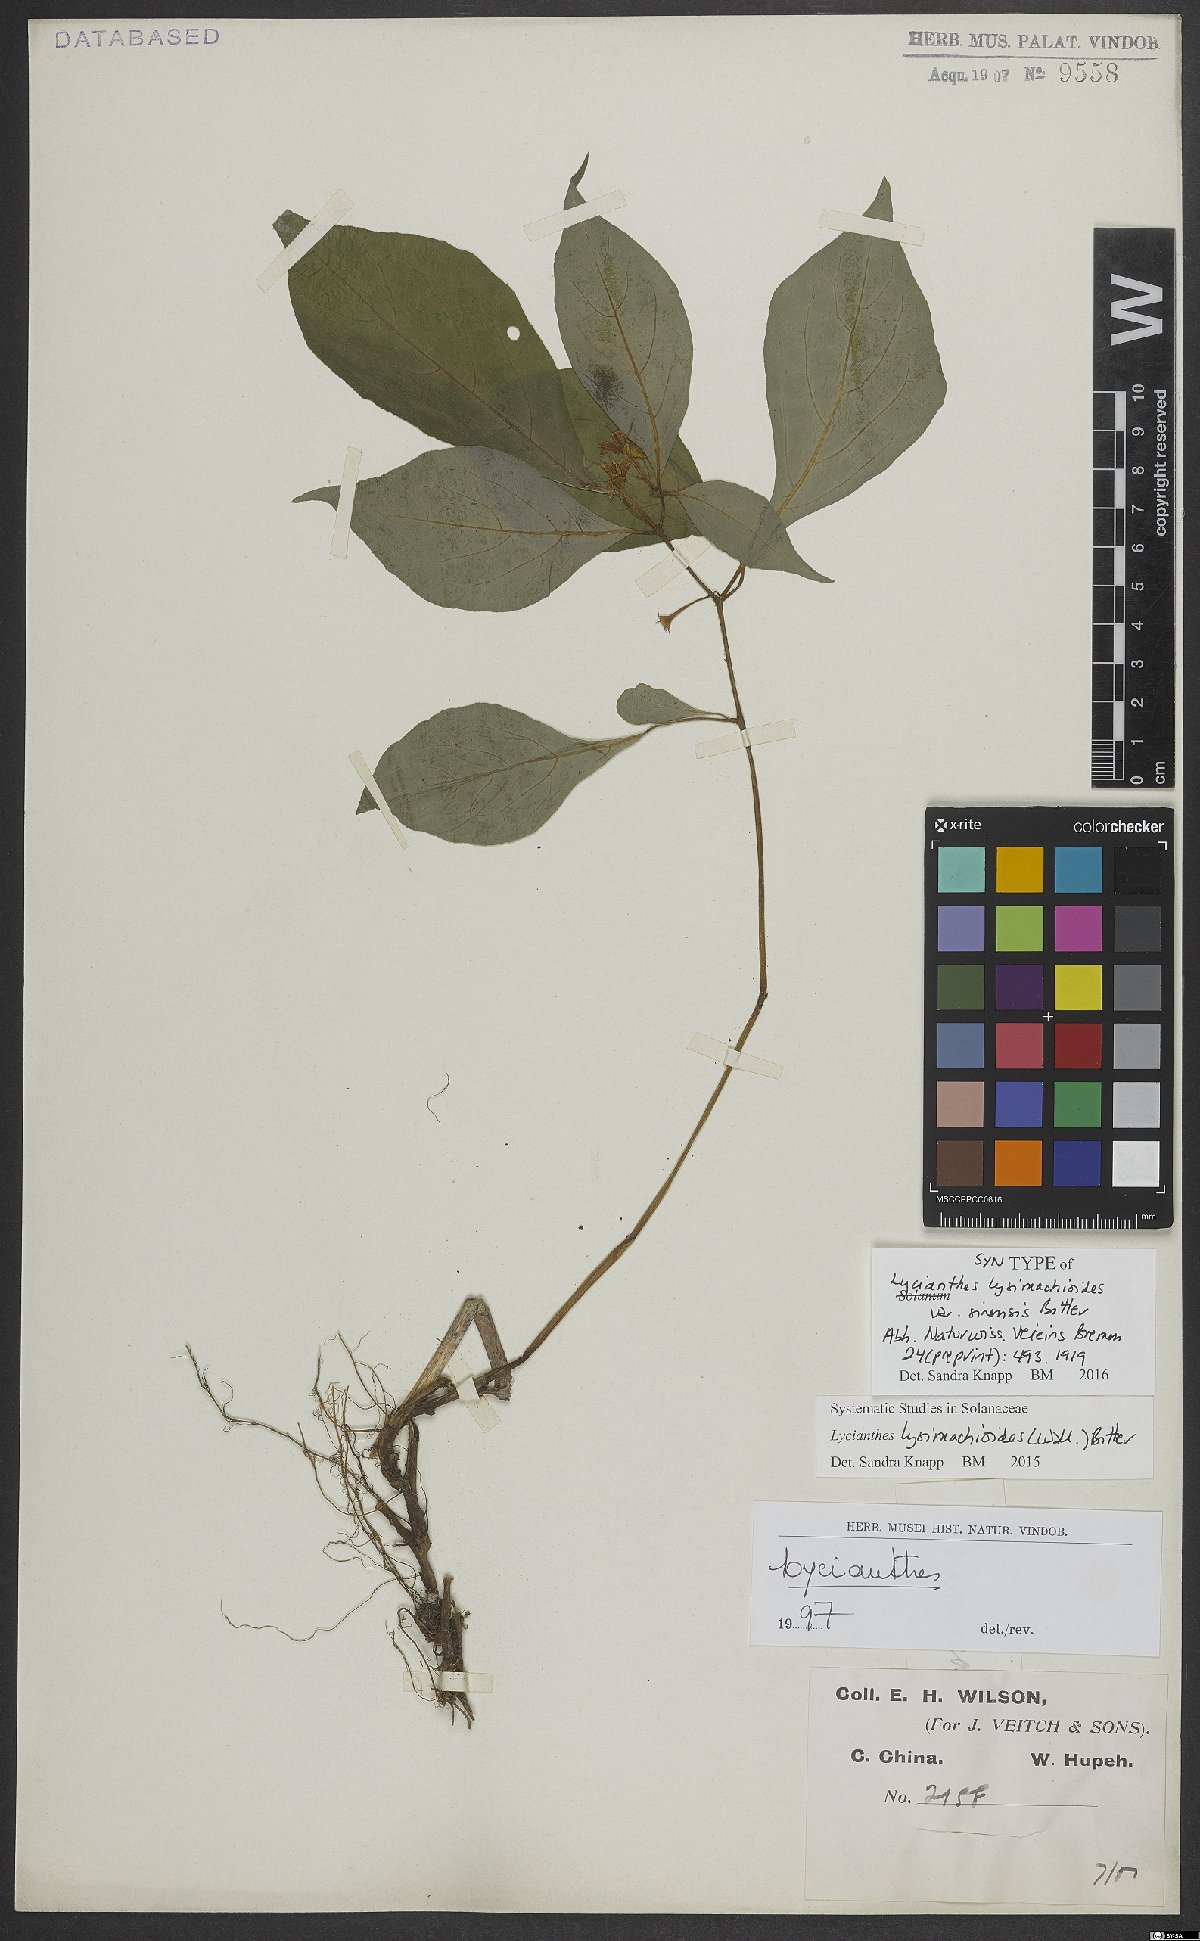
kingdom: Plantae
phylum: Tracheophyta
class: Magnoliopsida
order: Solanales
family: Solanaceae
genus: Lycianthes
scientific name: Lycianthes lysimachioides
